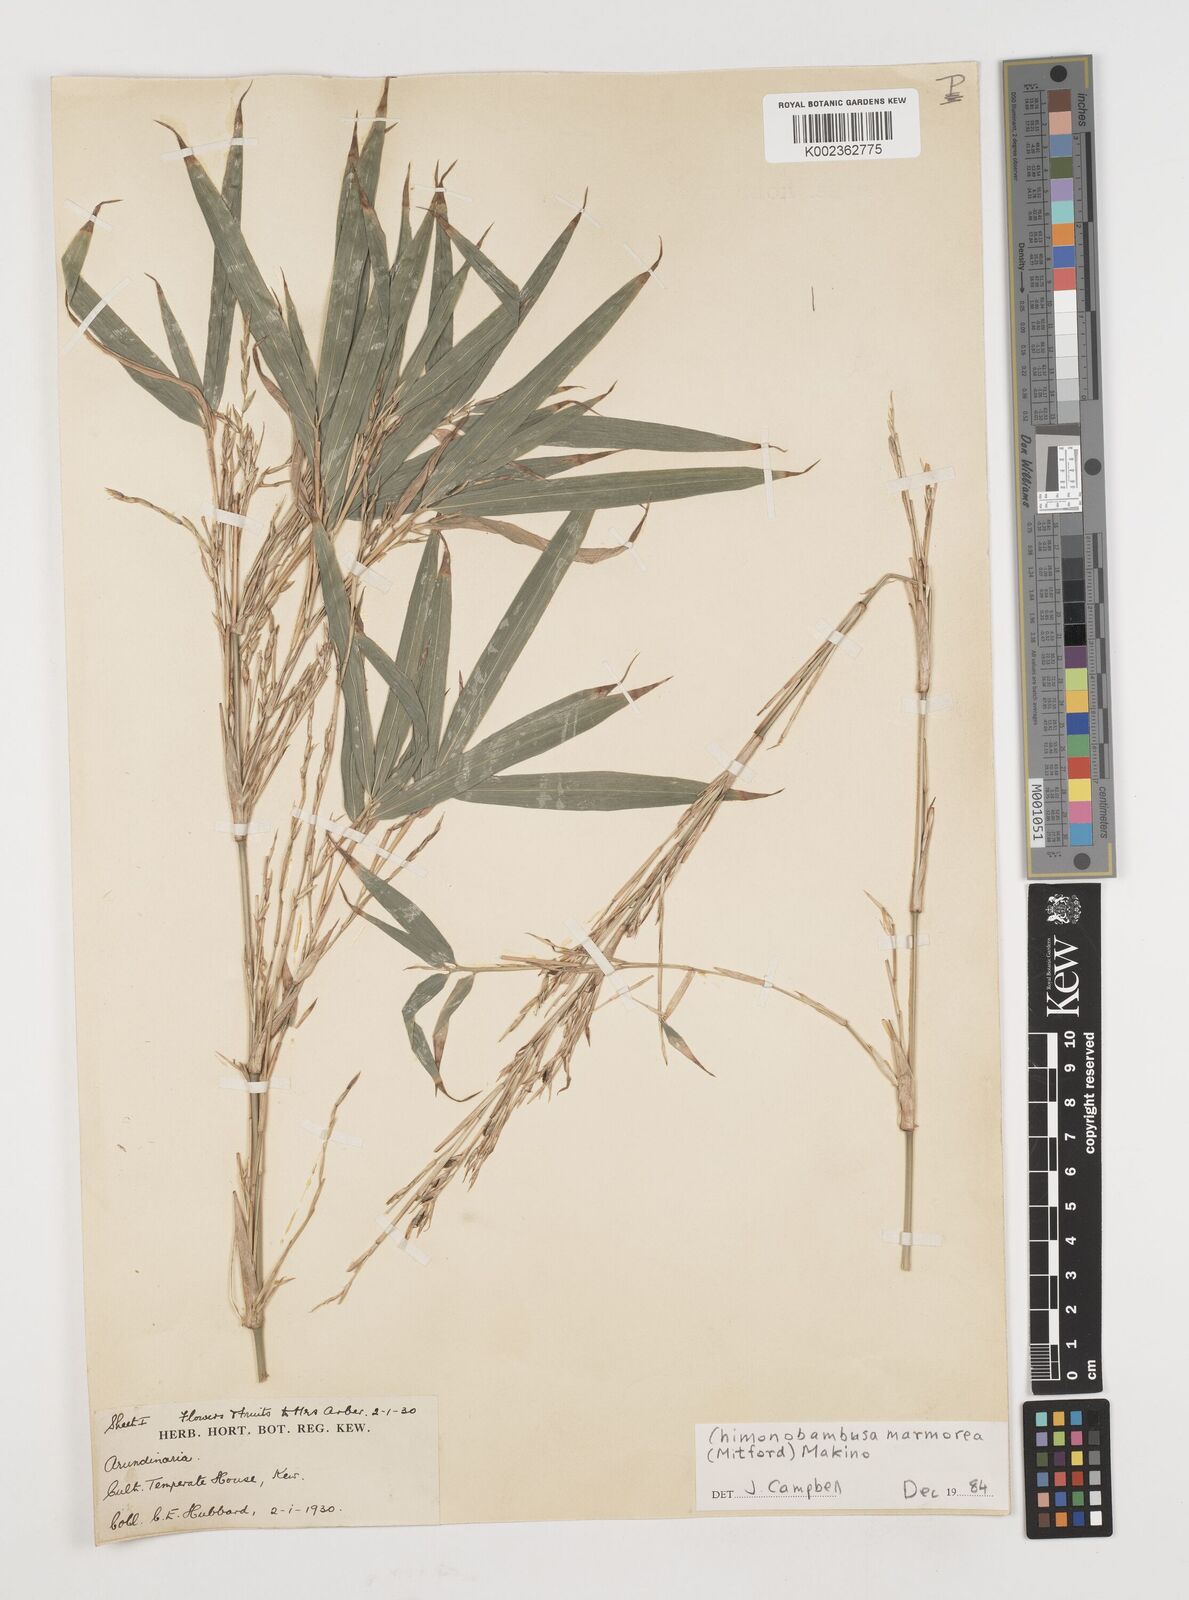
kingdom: Plantae
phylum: Tracheophyta
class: Liliopsida
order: Poales
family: Poaceae
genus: Chimonobambusa
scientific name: Chimonobambusa marmorea
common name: Marbled bamboo
